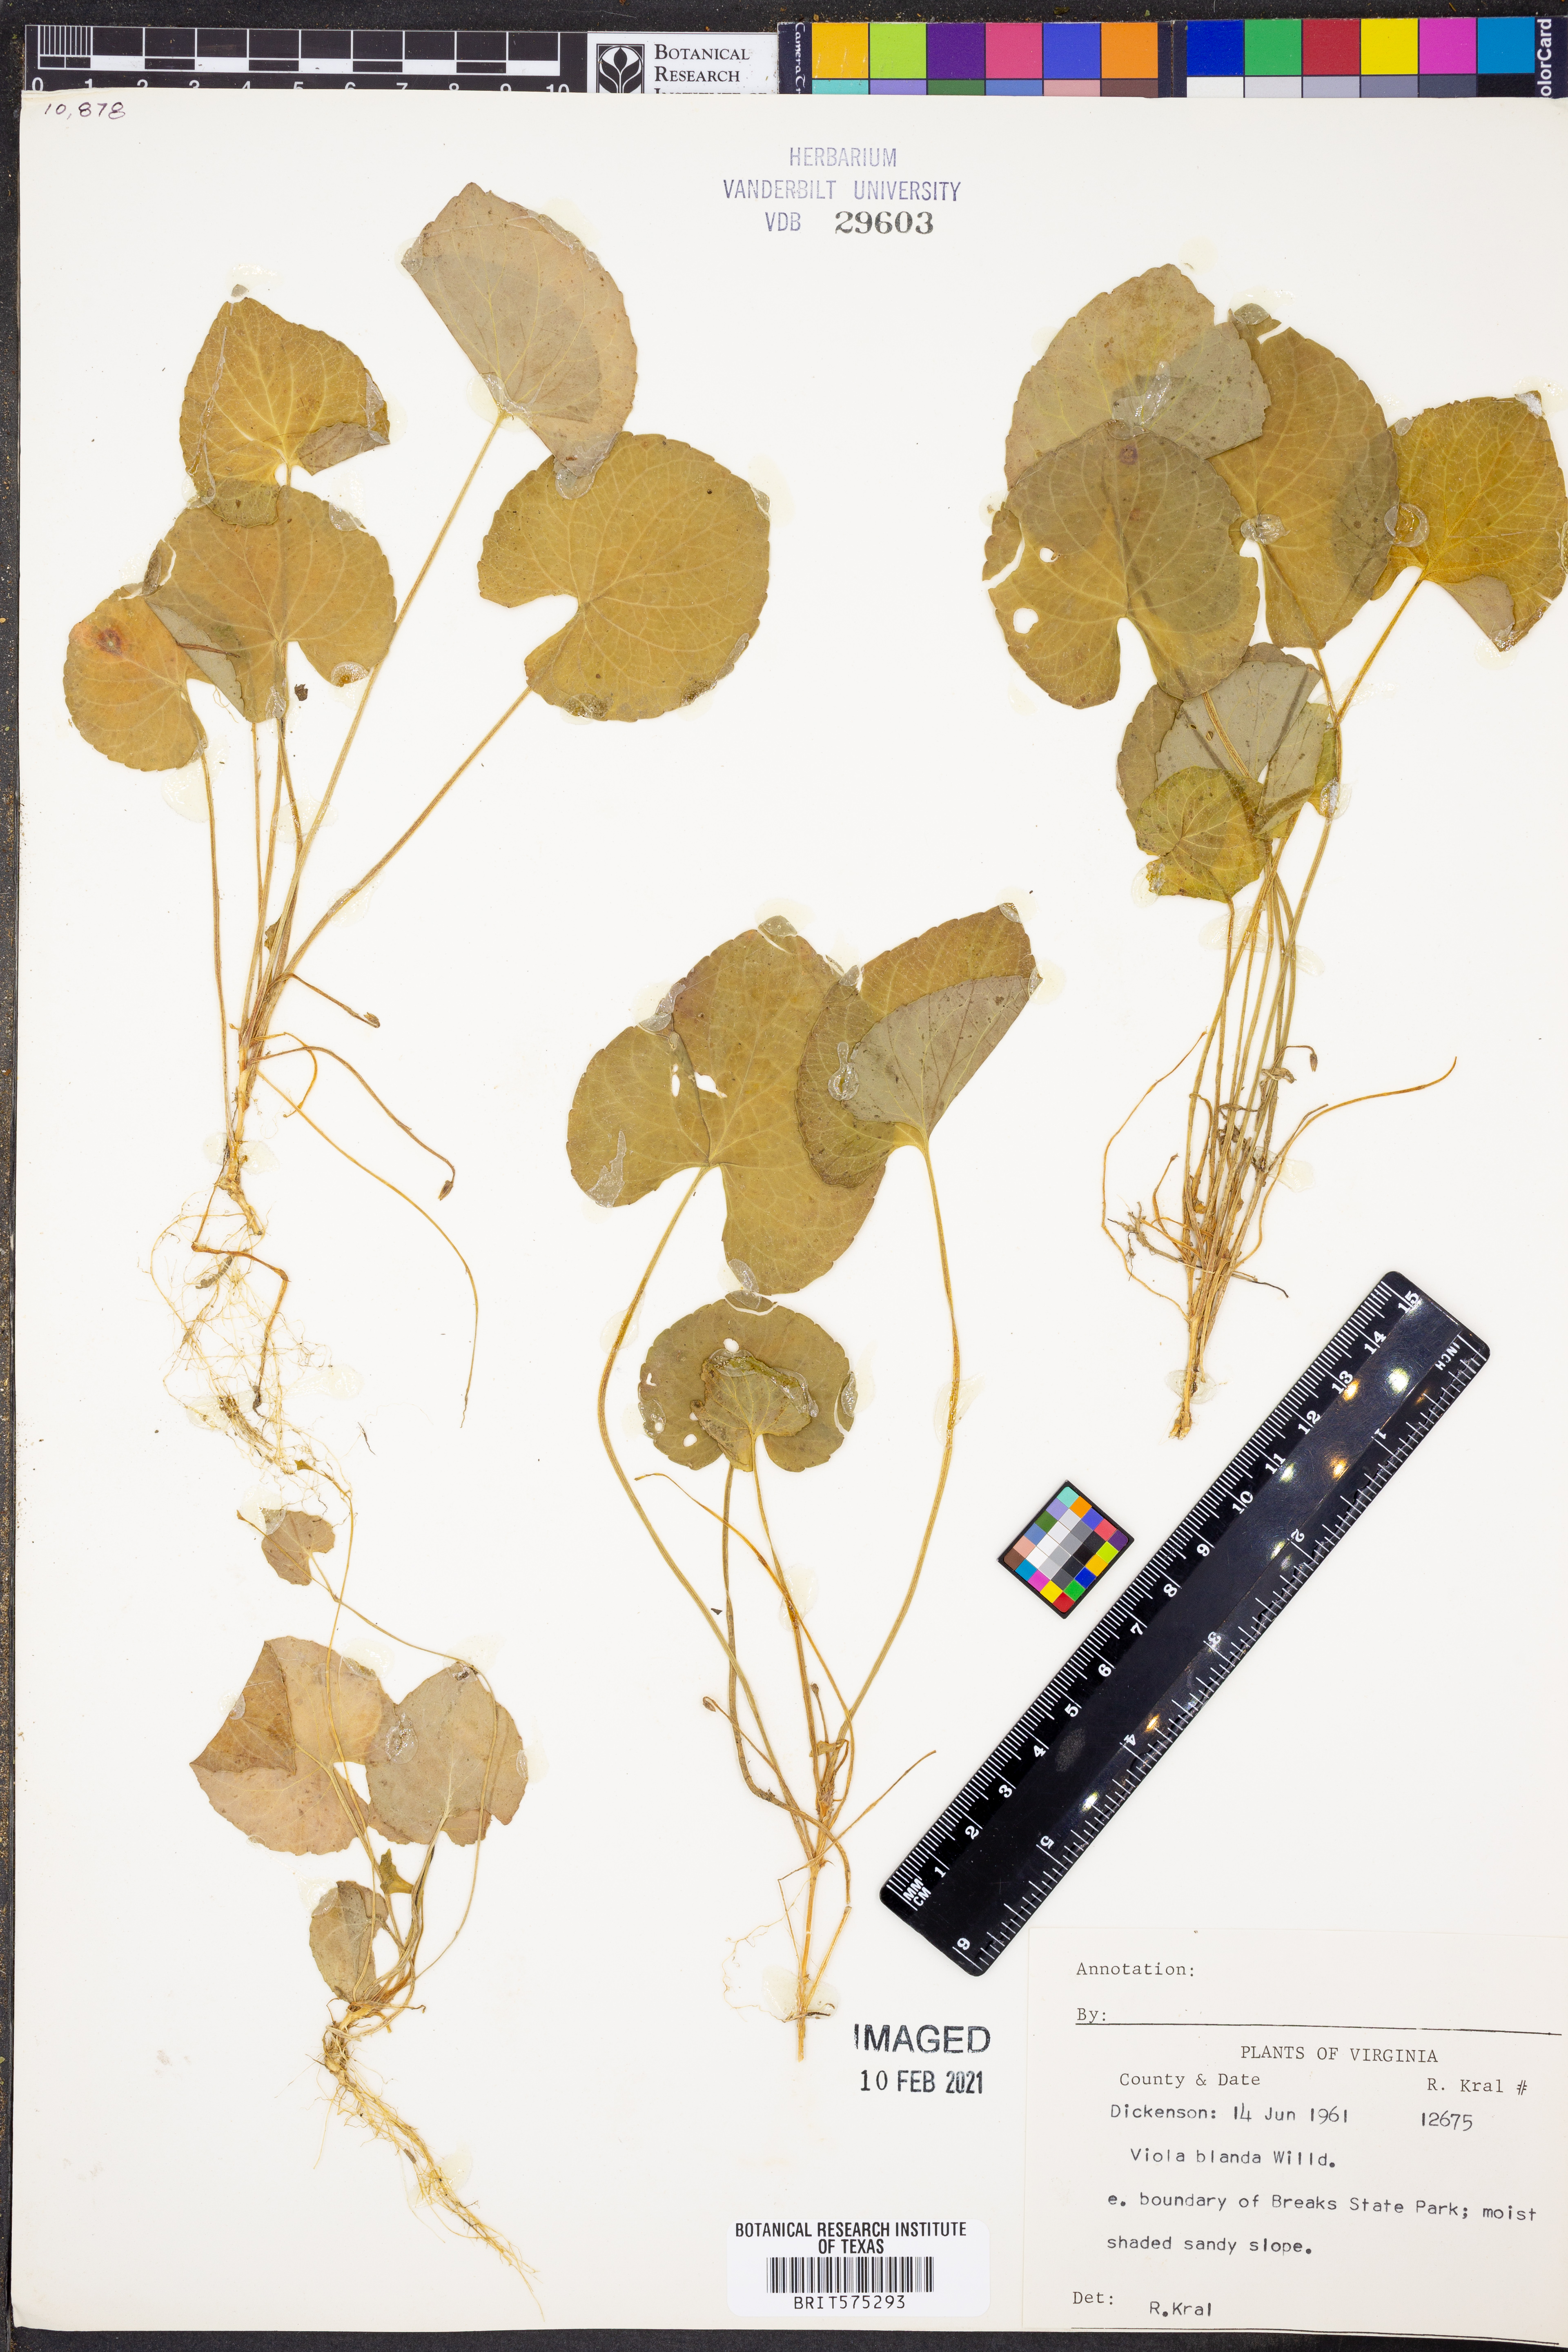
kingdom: Plantae
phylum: Tracheophyta
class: Magnoliopsida
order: Malpighiales
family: Violaceae
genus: Viola
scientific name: Viola blanda
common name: Sweet white violet
